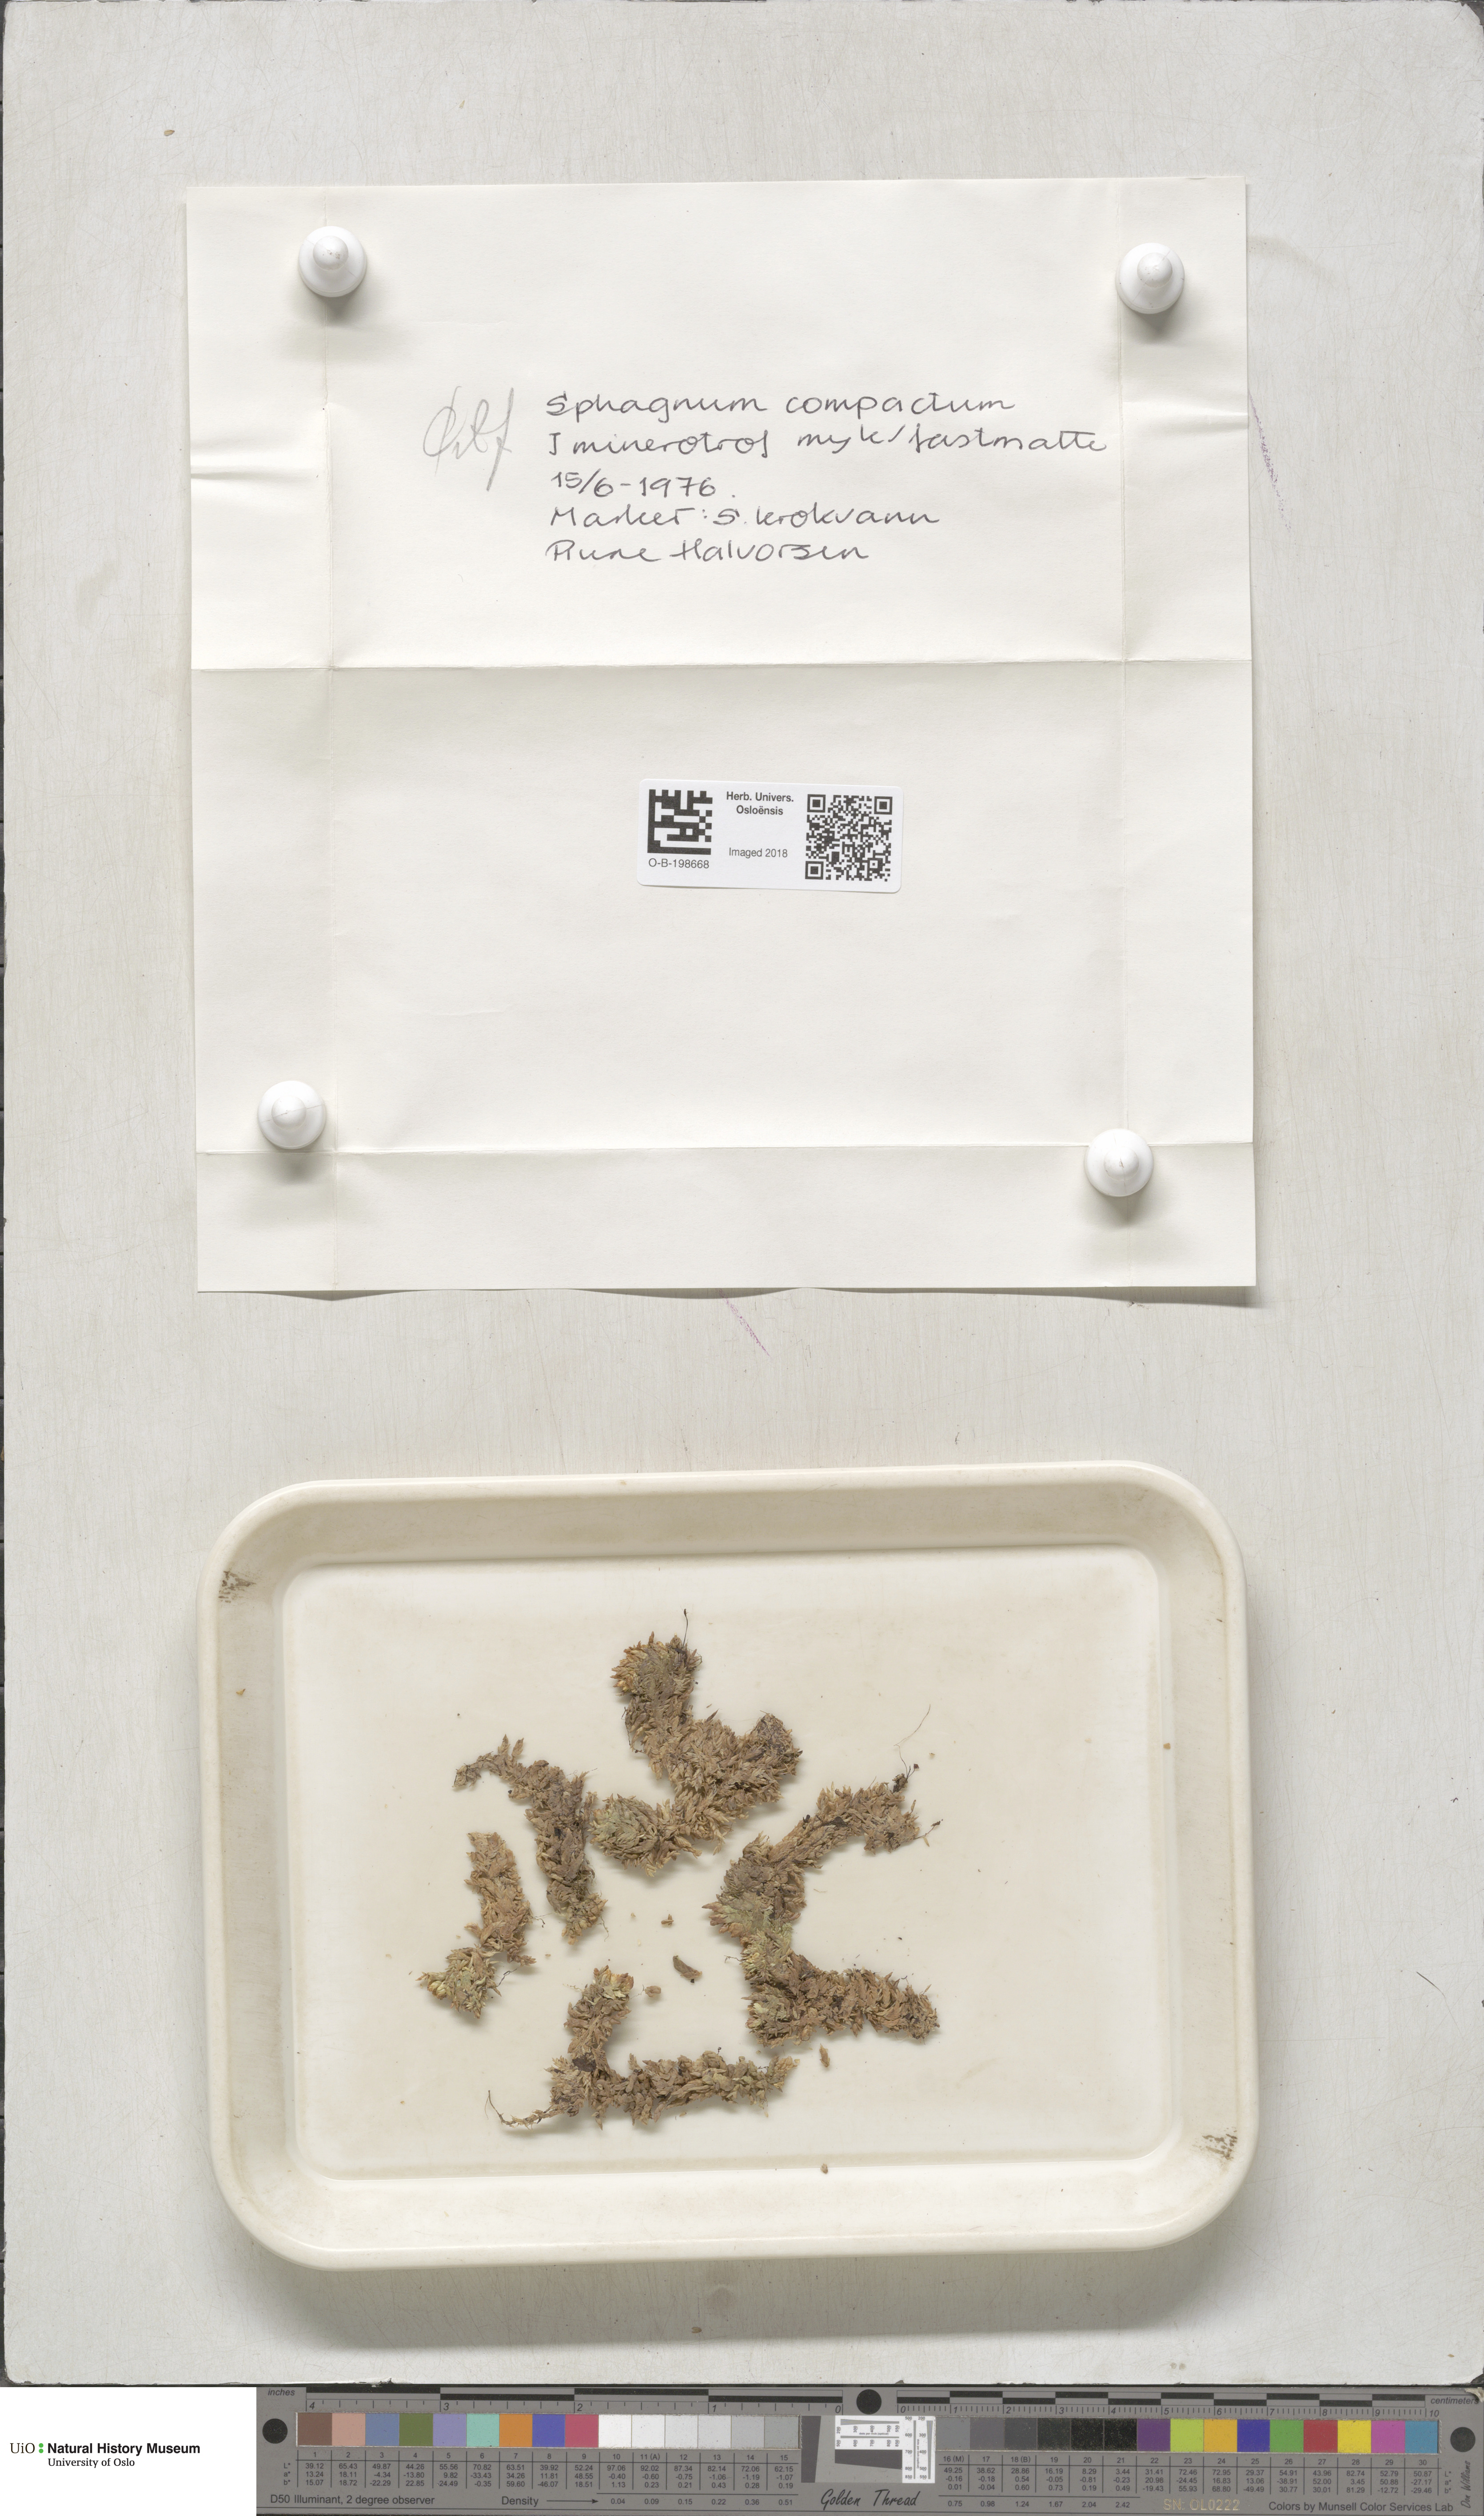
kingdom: Plantae
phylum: Bryophyta
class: Sphagnopsida
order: Sphagnales
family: Sphagnaceae
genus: Sphagnum
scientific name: Sphagnum compactum
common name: Compact peat moss
